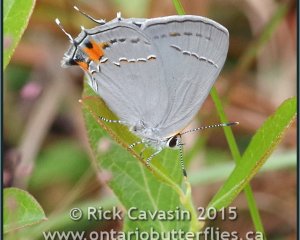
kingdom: Animalia
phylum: Arthropoda
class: Insecta
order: Lepidoptera
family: Lycaenidae
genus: Strymon
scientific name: Strymon melinus
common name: Gray Hairstreak
